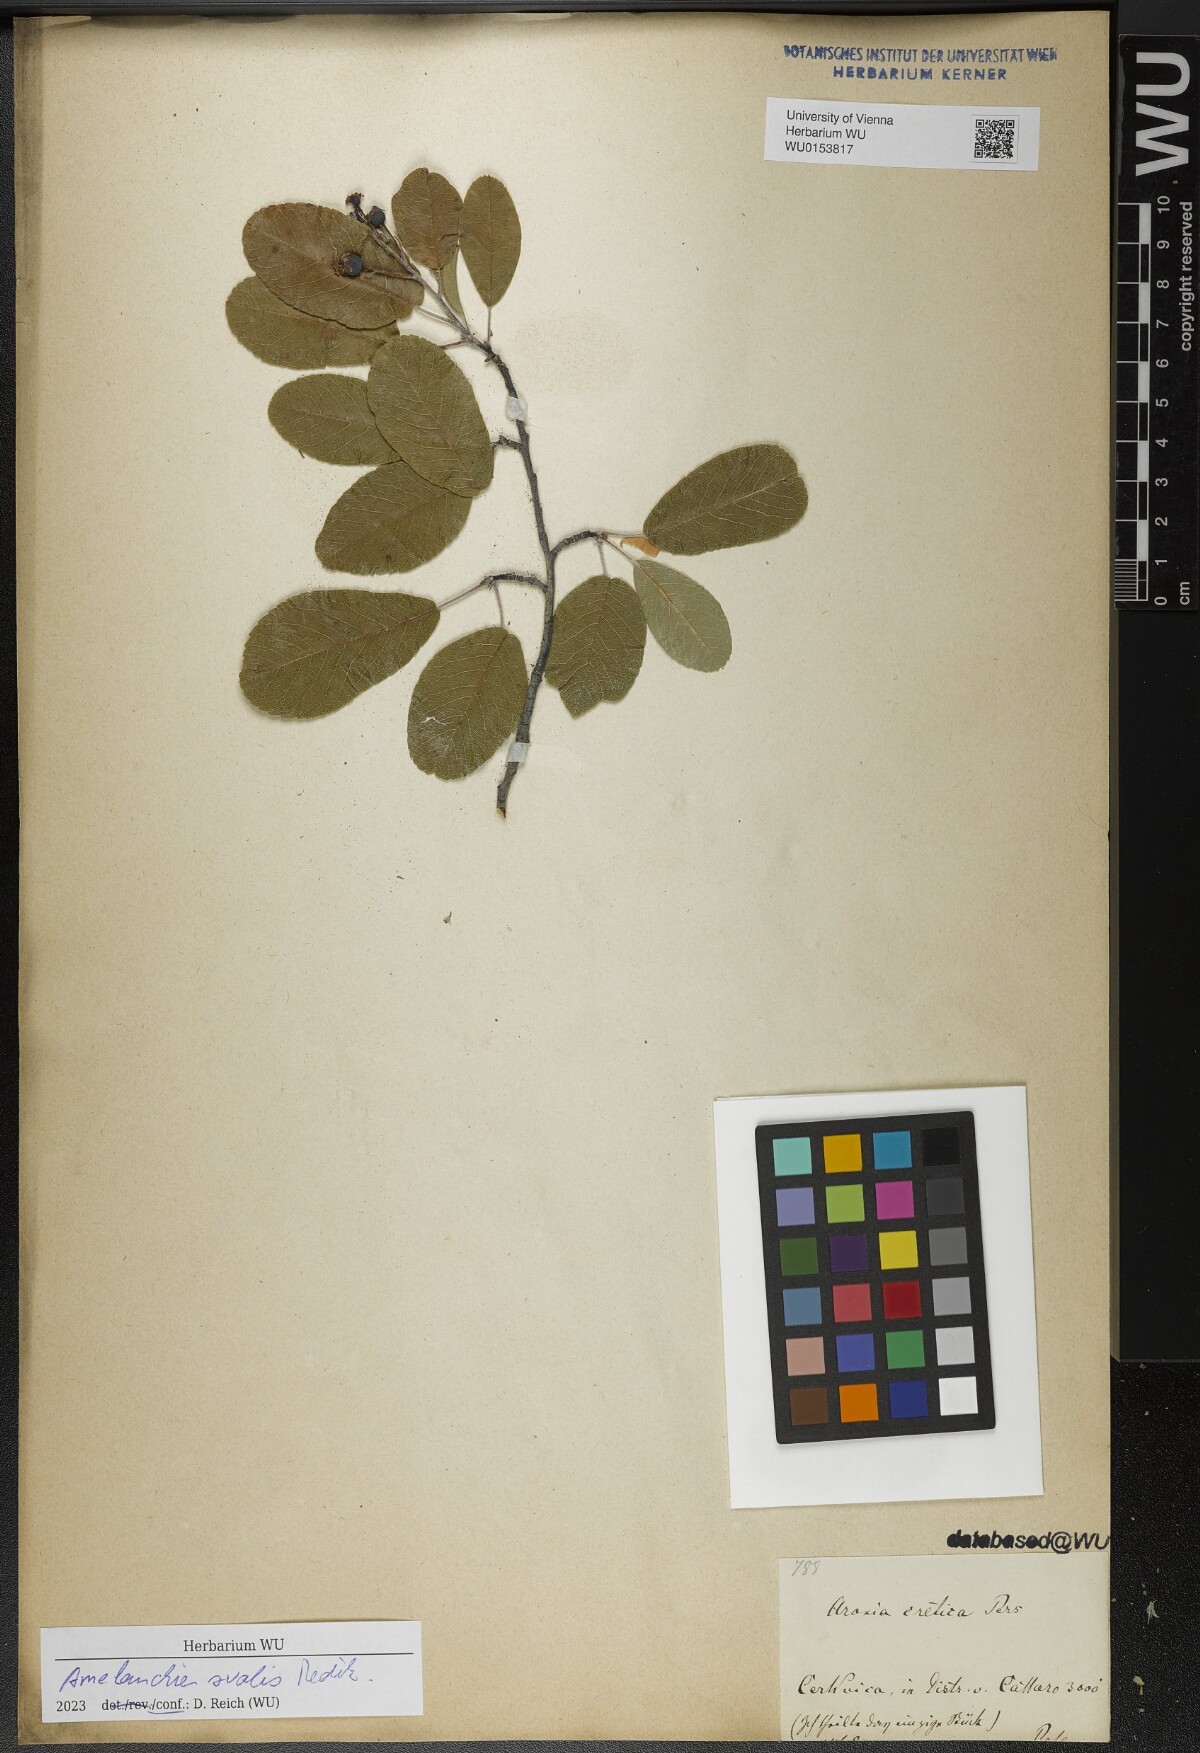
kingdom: Plantae
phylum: Tracheophyta
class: Magnoliopsida
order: Rosales
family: Rosaceae
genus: Amelanchier
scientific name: Amelanchier ovalis
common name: Serviceberry
